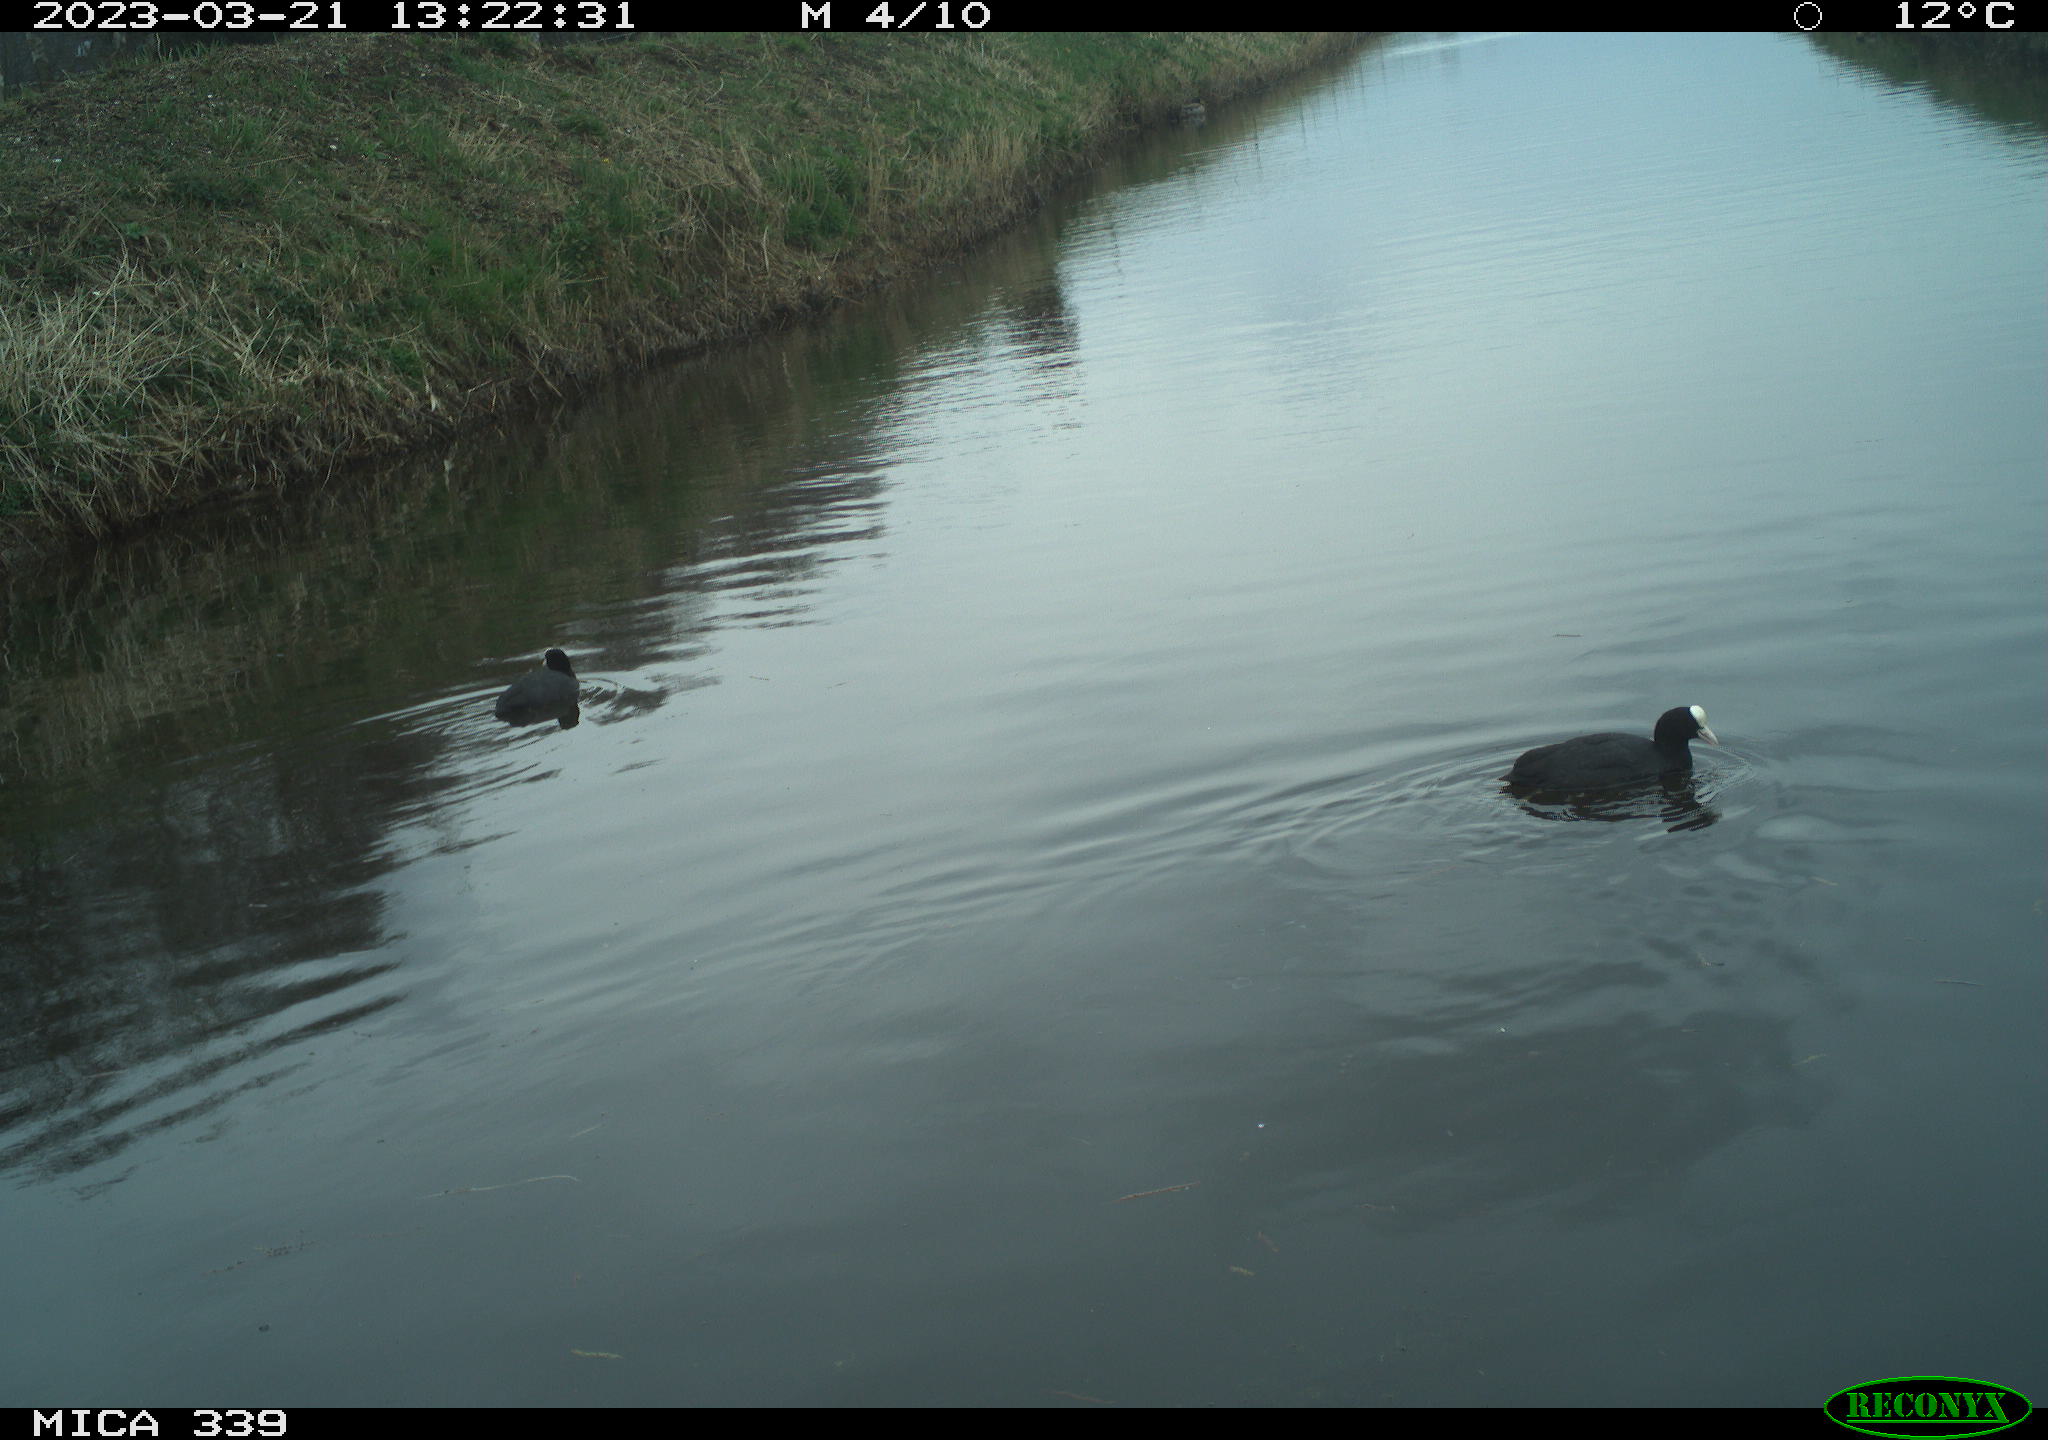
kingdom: Animalia
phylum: Chordata
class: Aves
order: Anseriformes
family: Anatidae
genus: Anas
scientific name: Anas
